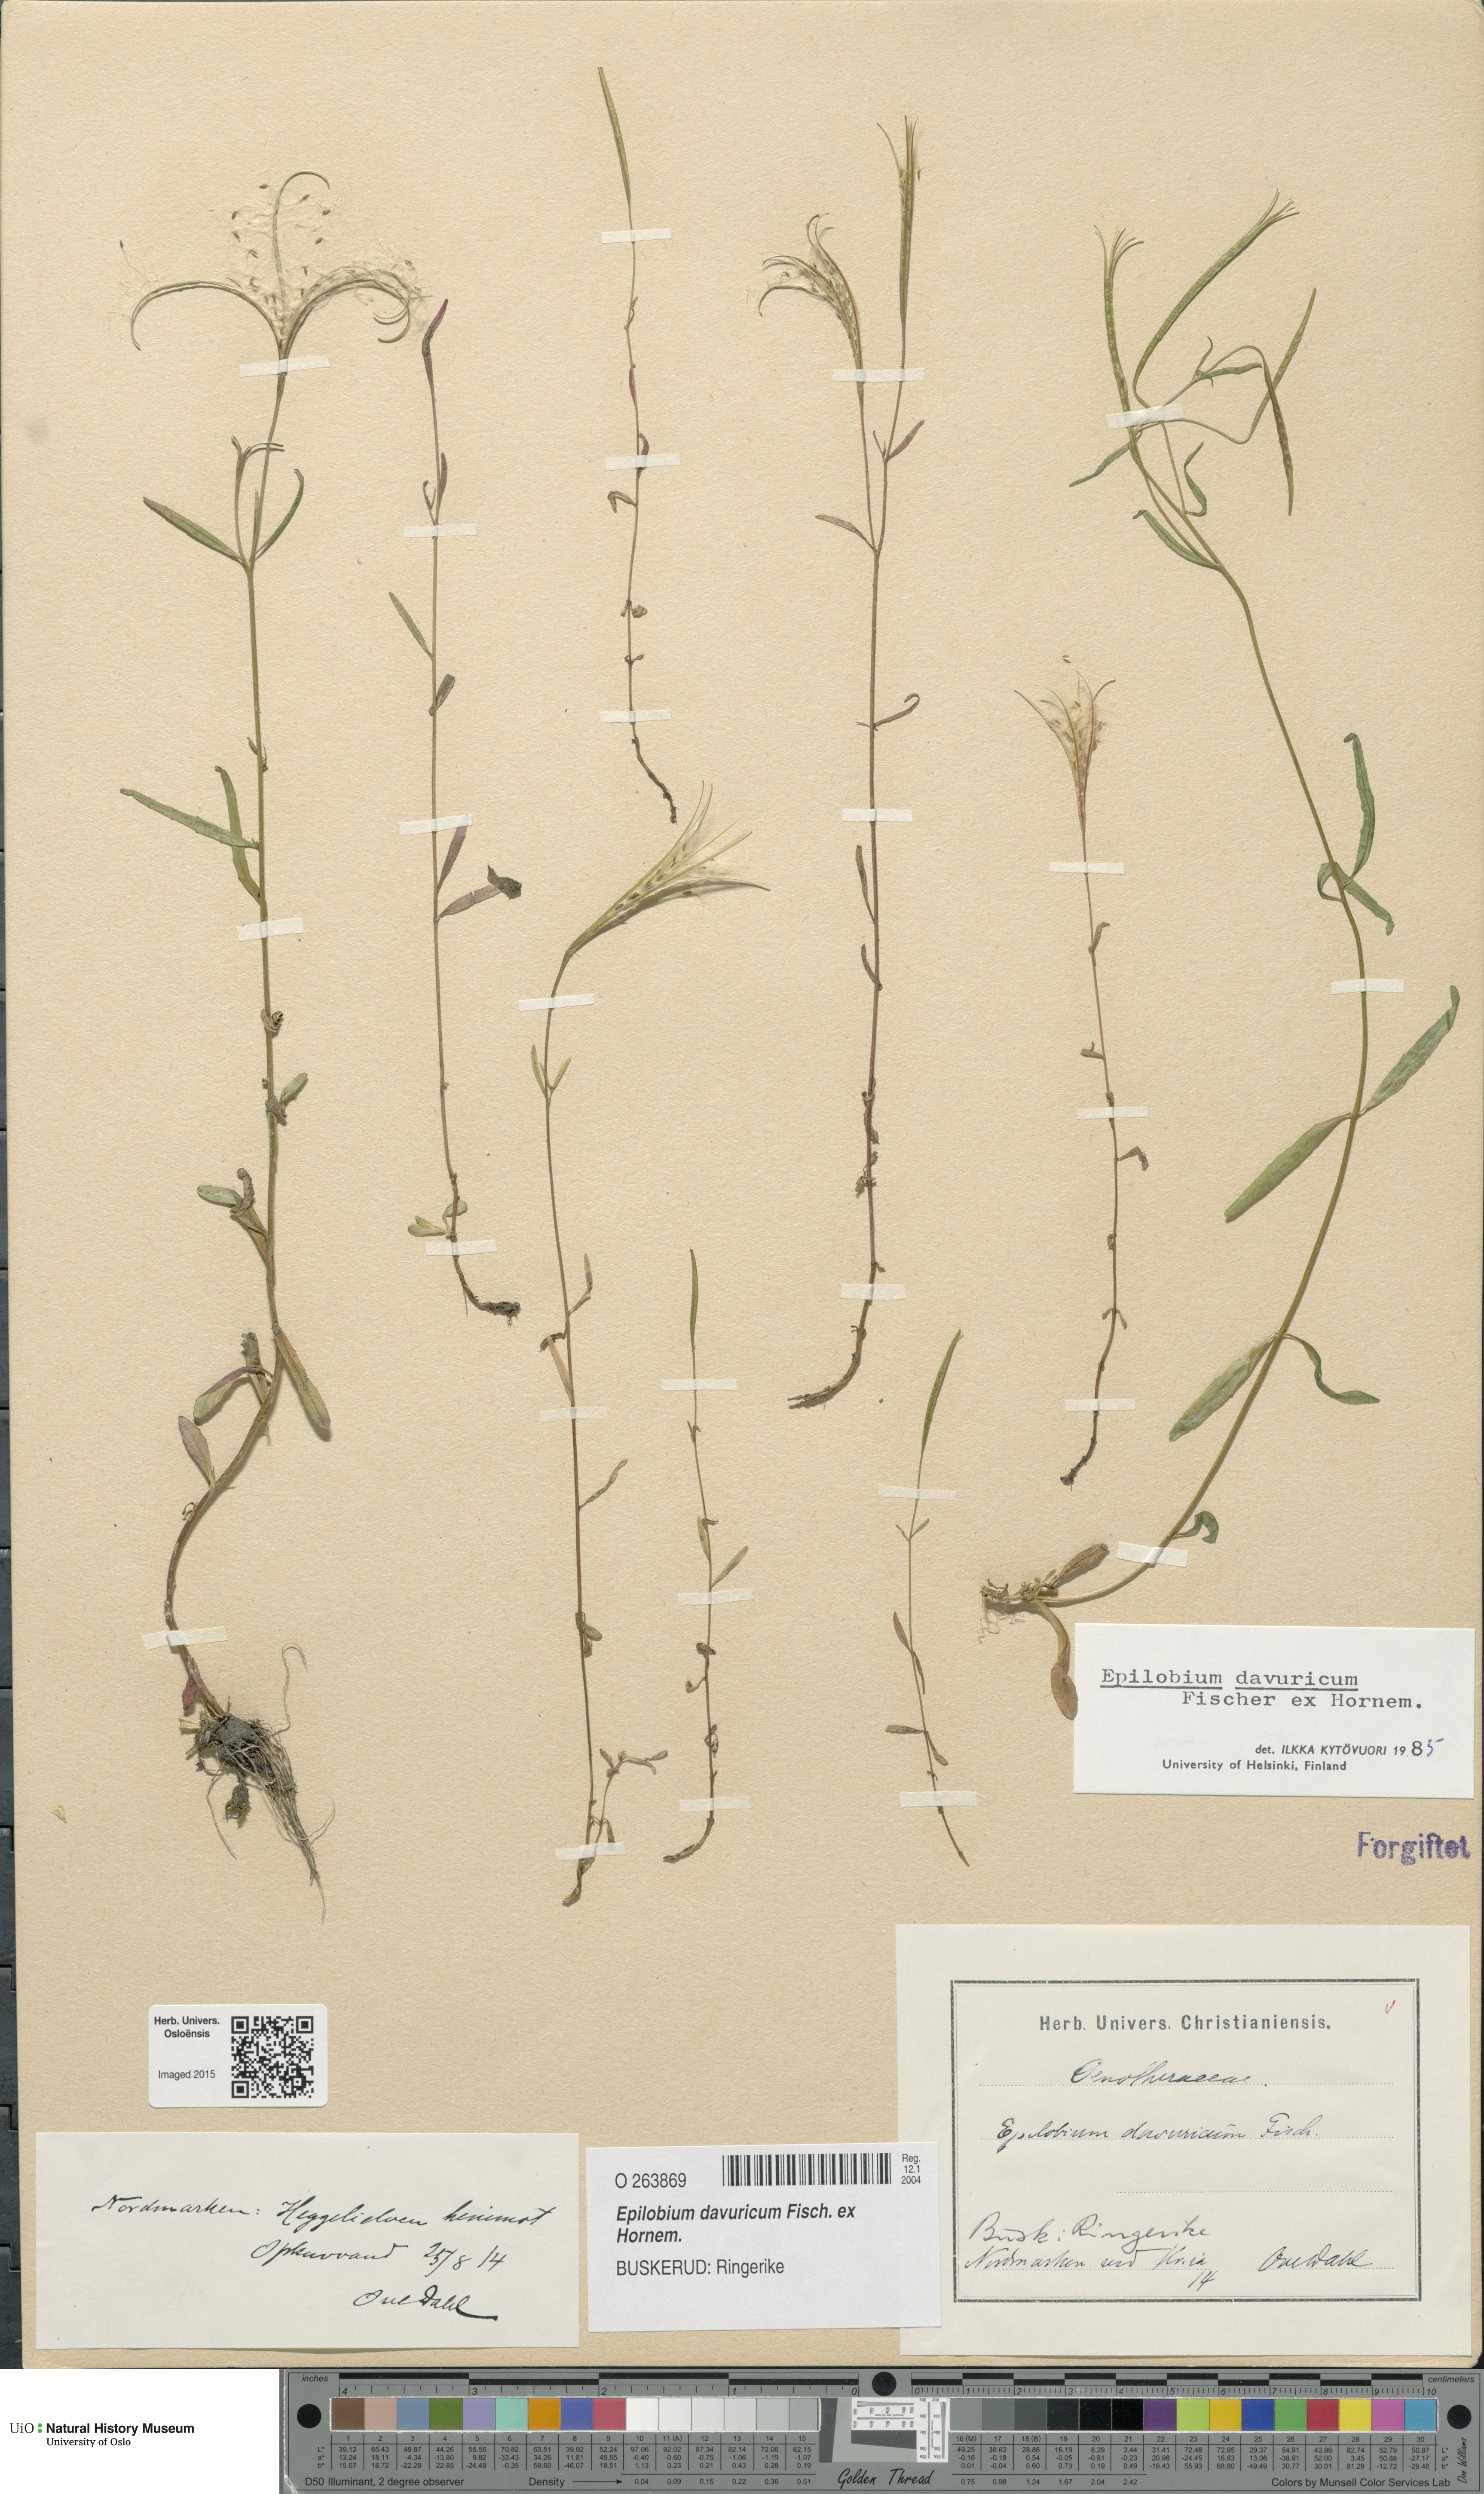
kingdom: Plantae
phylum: Tracheophyta
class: Magnoliopsida
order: Myrtales
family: Onagraceae
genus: Epilobium
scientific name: Epilobium davuricum
